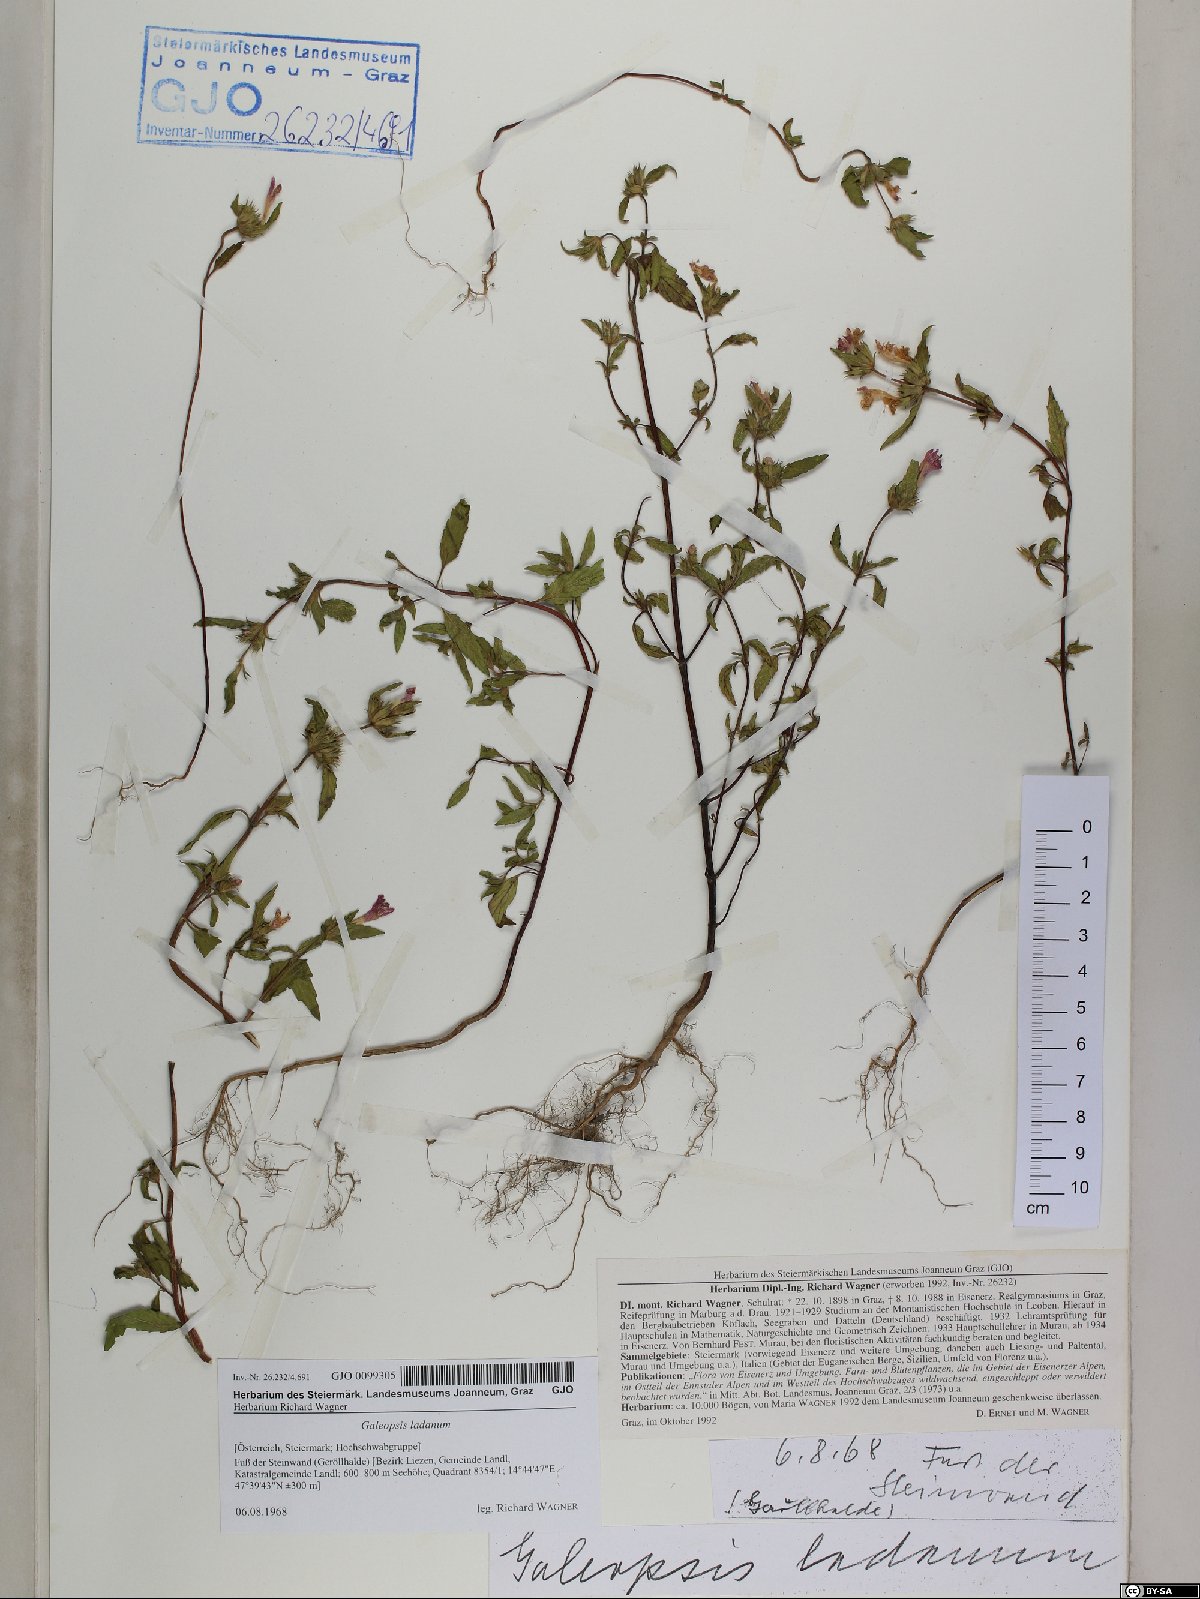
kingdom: Plantae
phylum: Tracheophyta
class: Magnoliopsida
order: Lamiales
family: Lamiaceae
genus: Galeopsis
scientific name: Galeopsis ladanum
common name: Broad-leaved hemp-nettle
